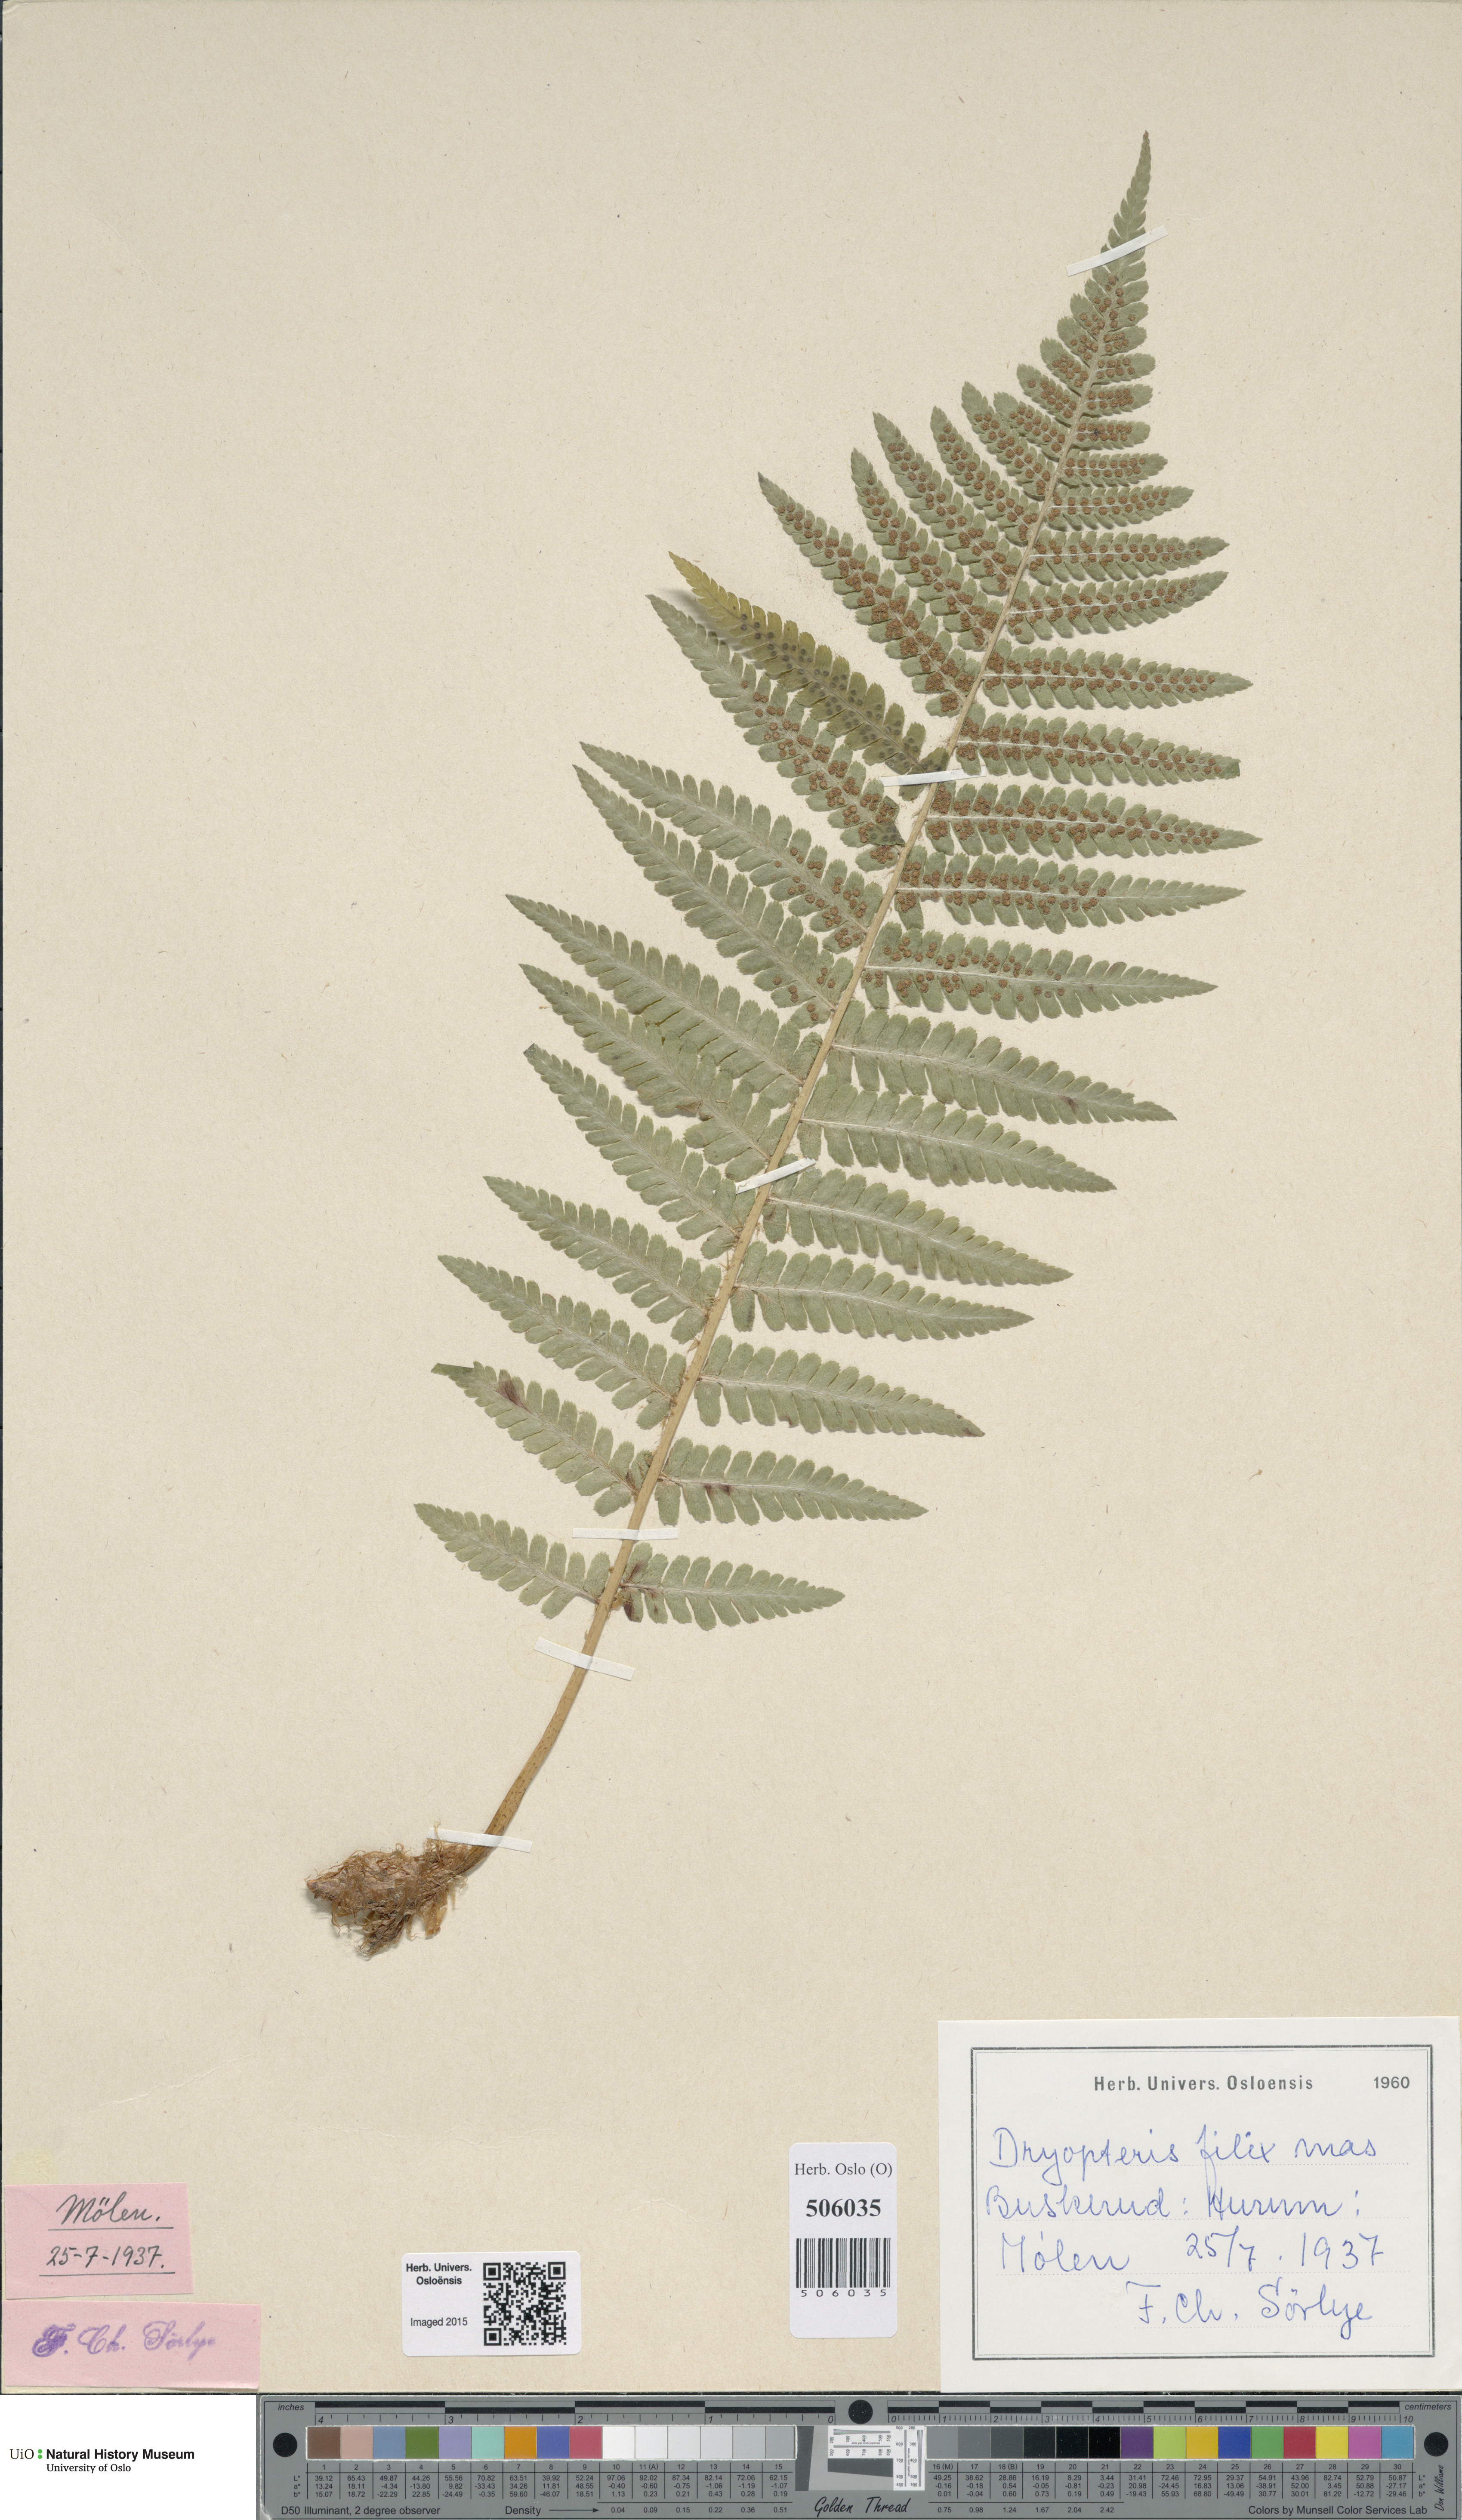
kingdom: Plantae
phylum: Tracheophyta
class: Polypodiopsida
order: Polypodiales
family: Dryopteridaceae
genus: Dryopteris
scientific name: Dryopteris filix-mas
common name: Male fern
